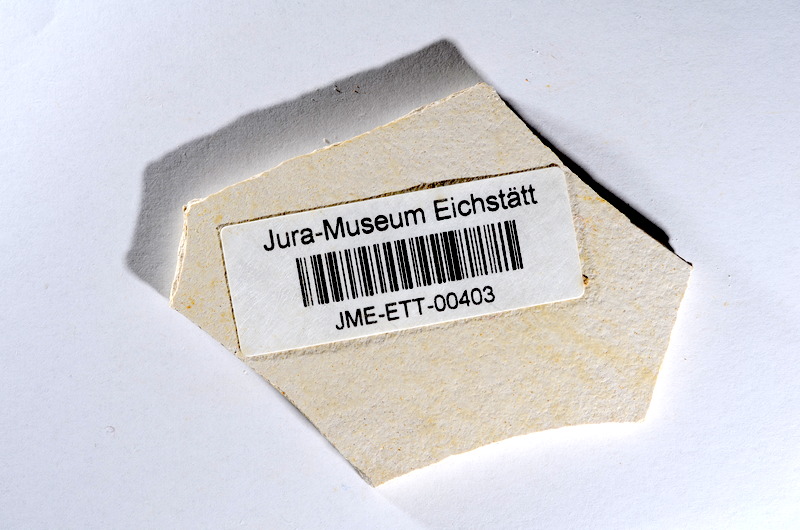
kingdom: Animalia
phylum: Chordata
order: Salmoniformes
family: Orthogonikleithridae
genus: Orthogonikleithrus
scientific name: Orthogonikleithrus hoelli
